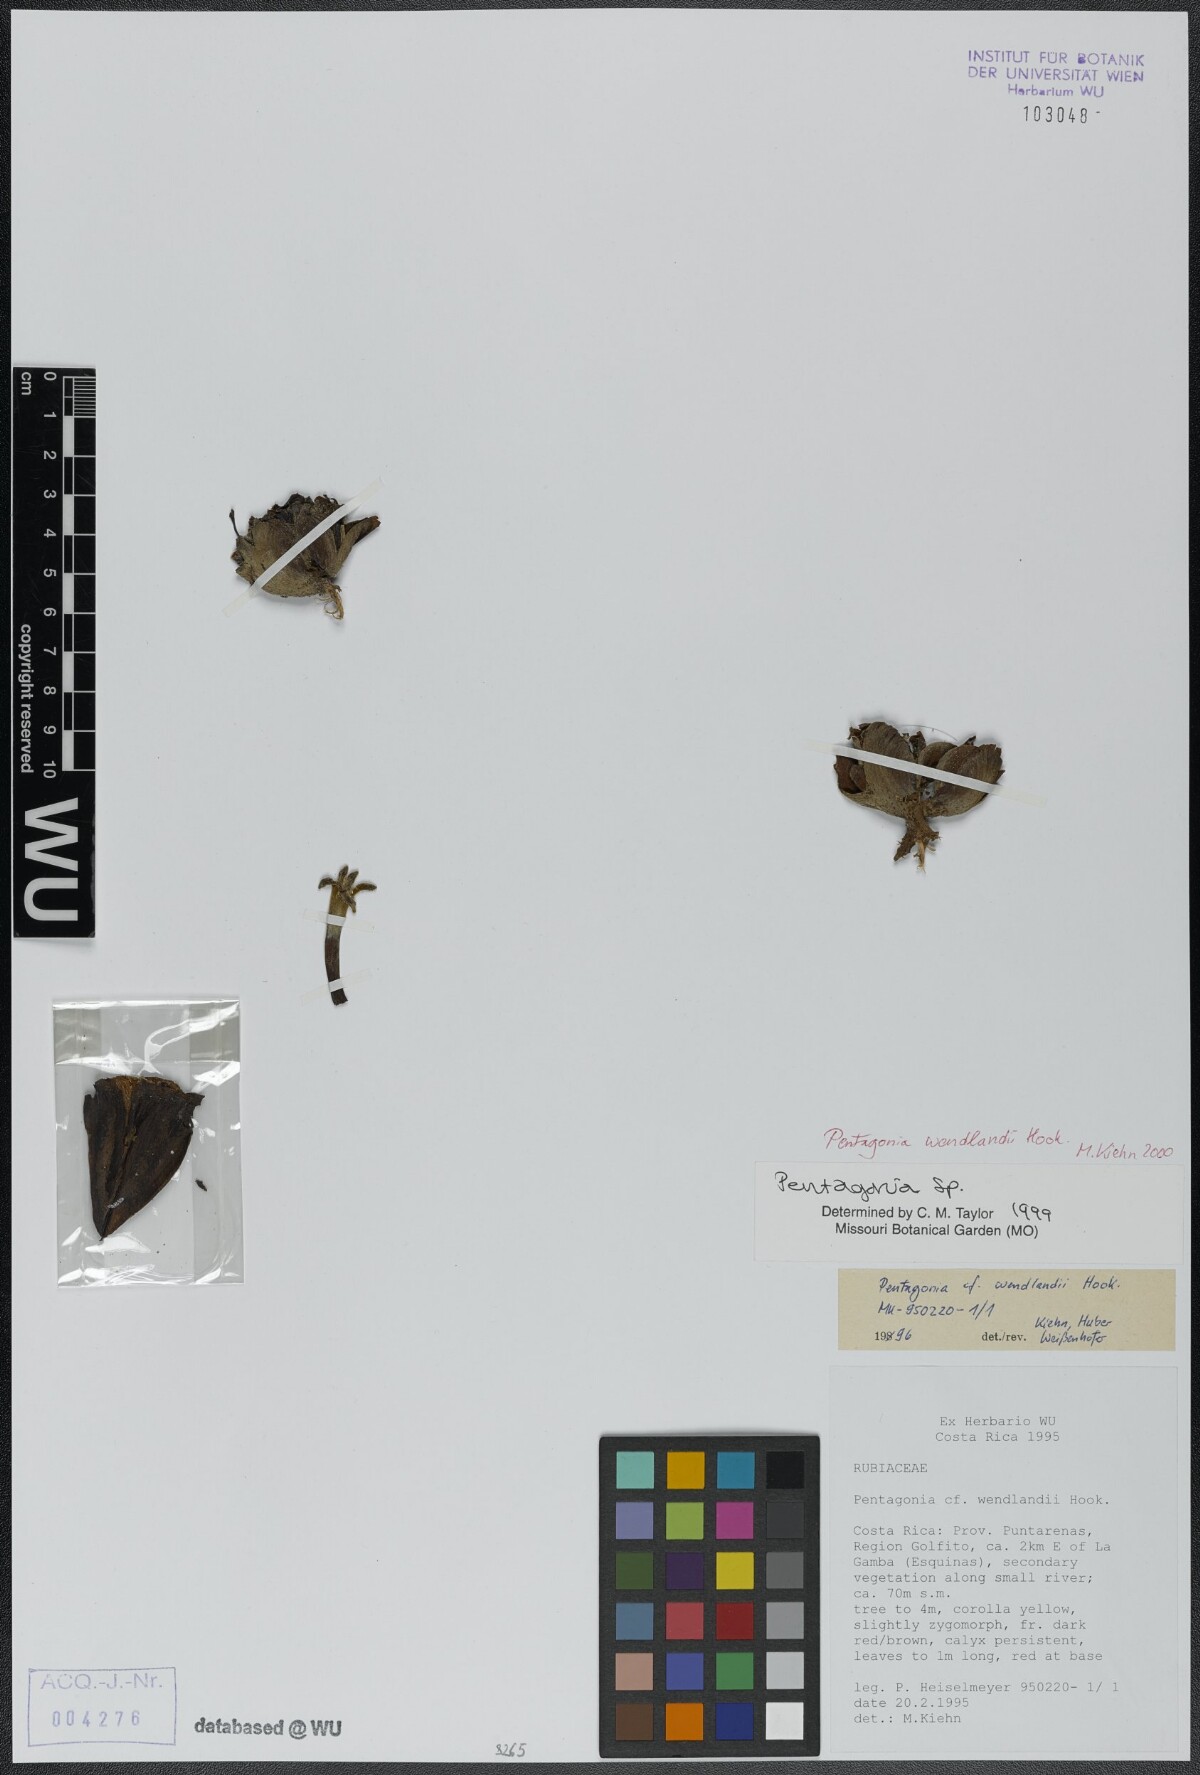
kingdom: Plantae
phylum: Tracheophyta
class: Magnoliopsida
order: Gentianales
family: Rubiaceae
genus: Pentagonia
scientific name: Pentagonia wendlandii
